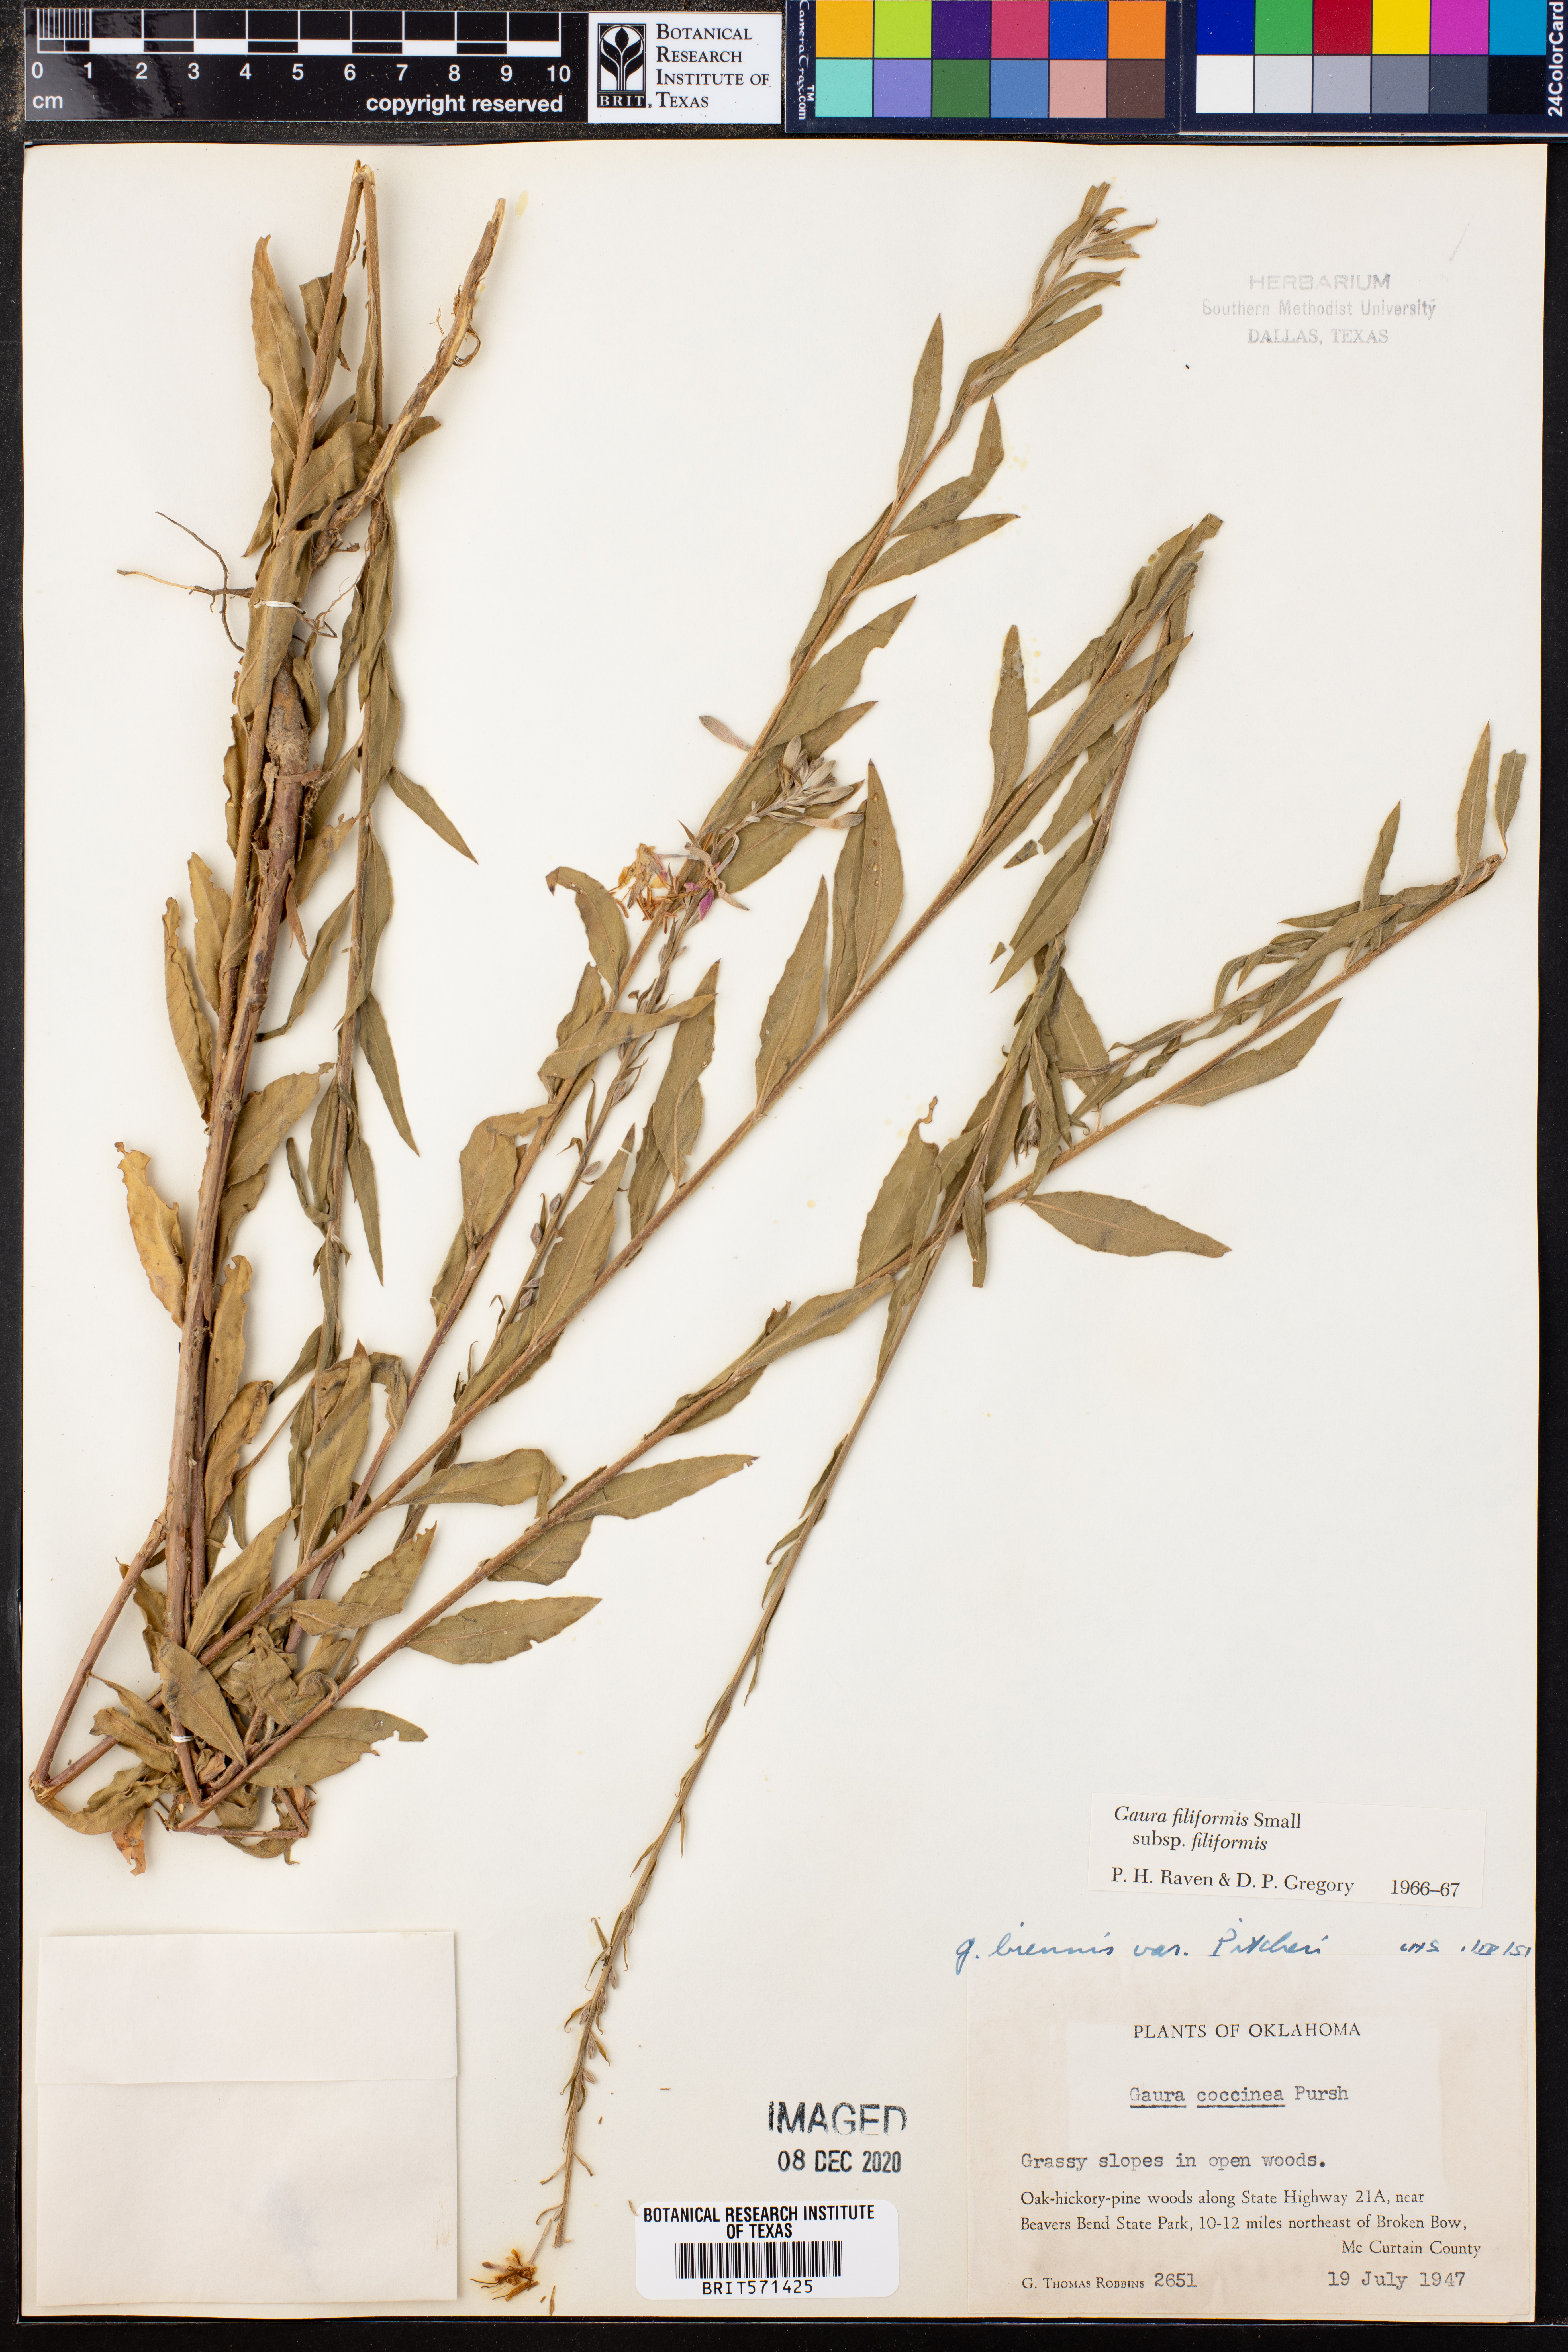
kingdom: Plantae
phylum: Tracheophyta
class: Magnoliopsida
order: Myrtales
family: Onagraceae
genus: Oenothera
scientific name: Oenothera filiformis
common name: Longflower beeblossom
